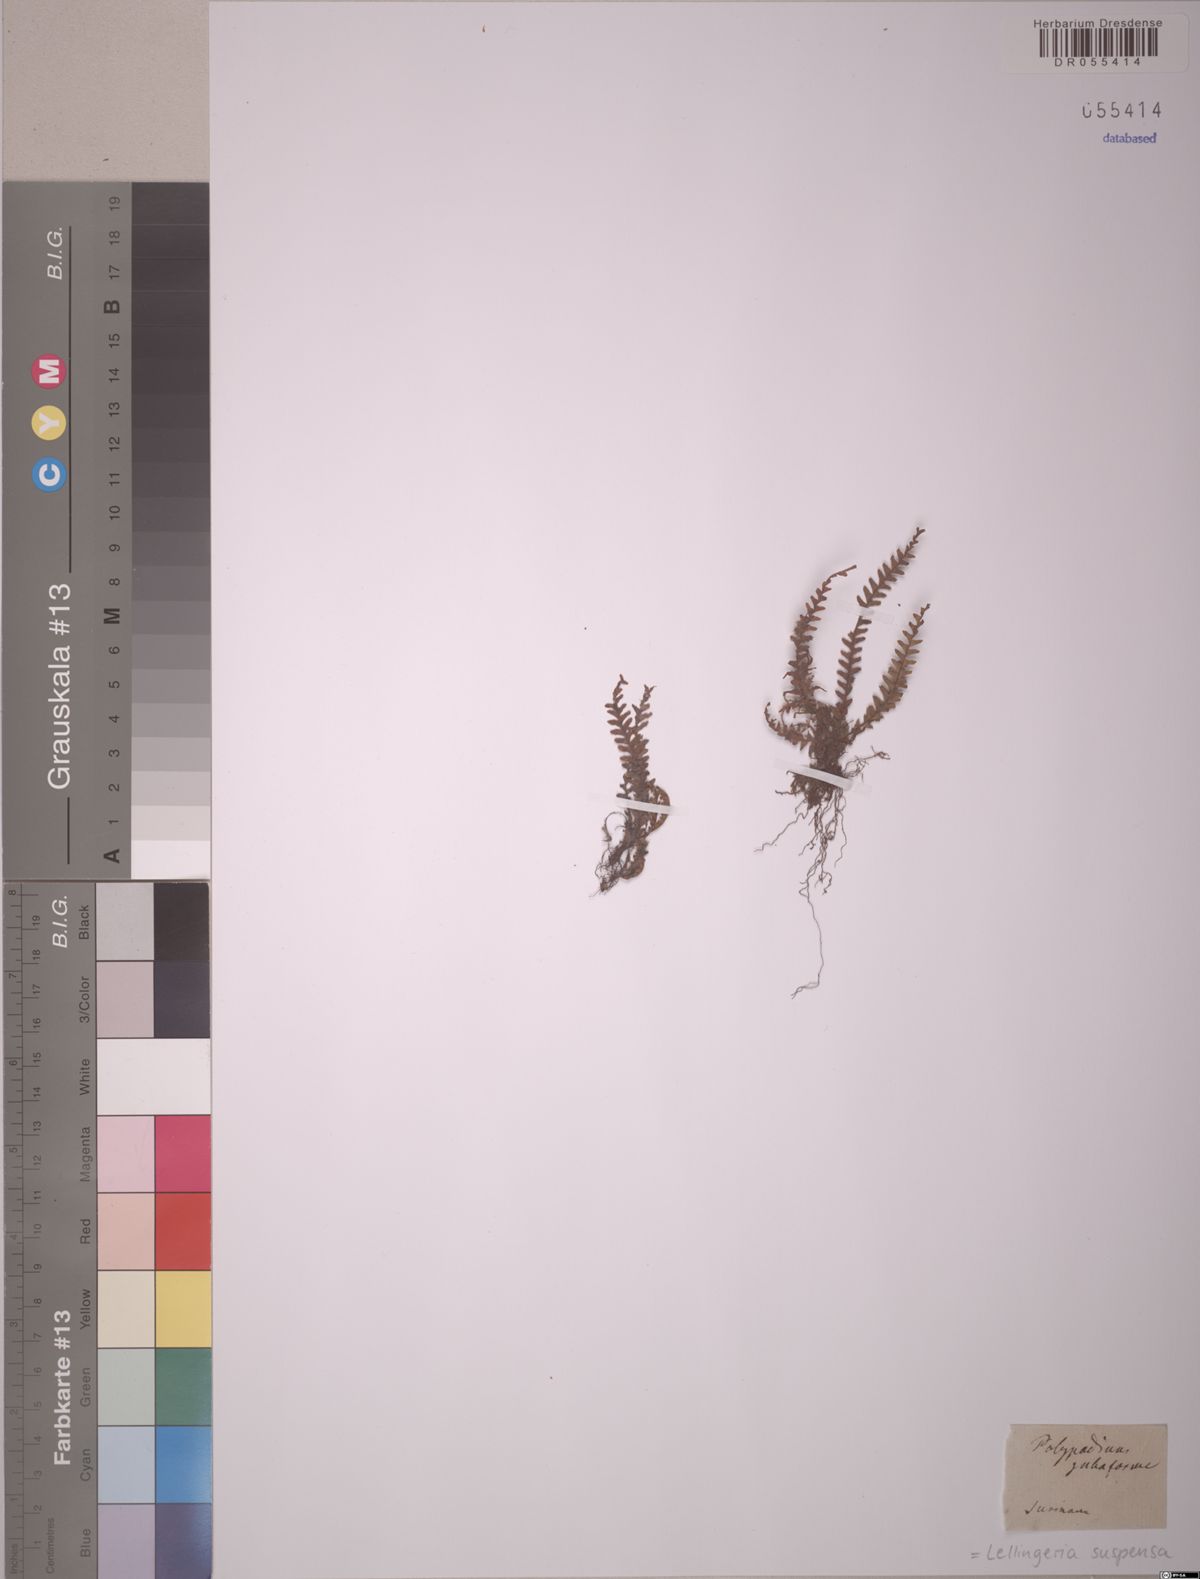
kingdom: Plantae
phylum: Tracheophyta
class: Polypodiopsida
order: Polypodiales
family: Polypodiaceae
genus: Lellingeria
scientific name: Lellingeria suspensa
